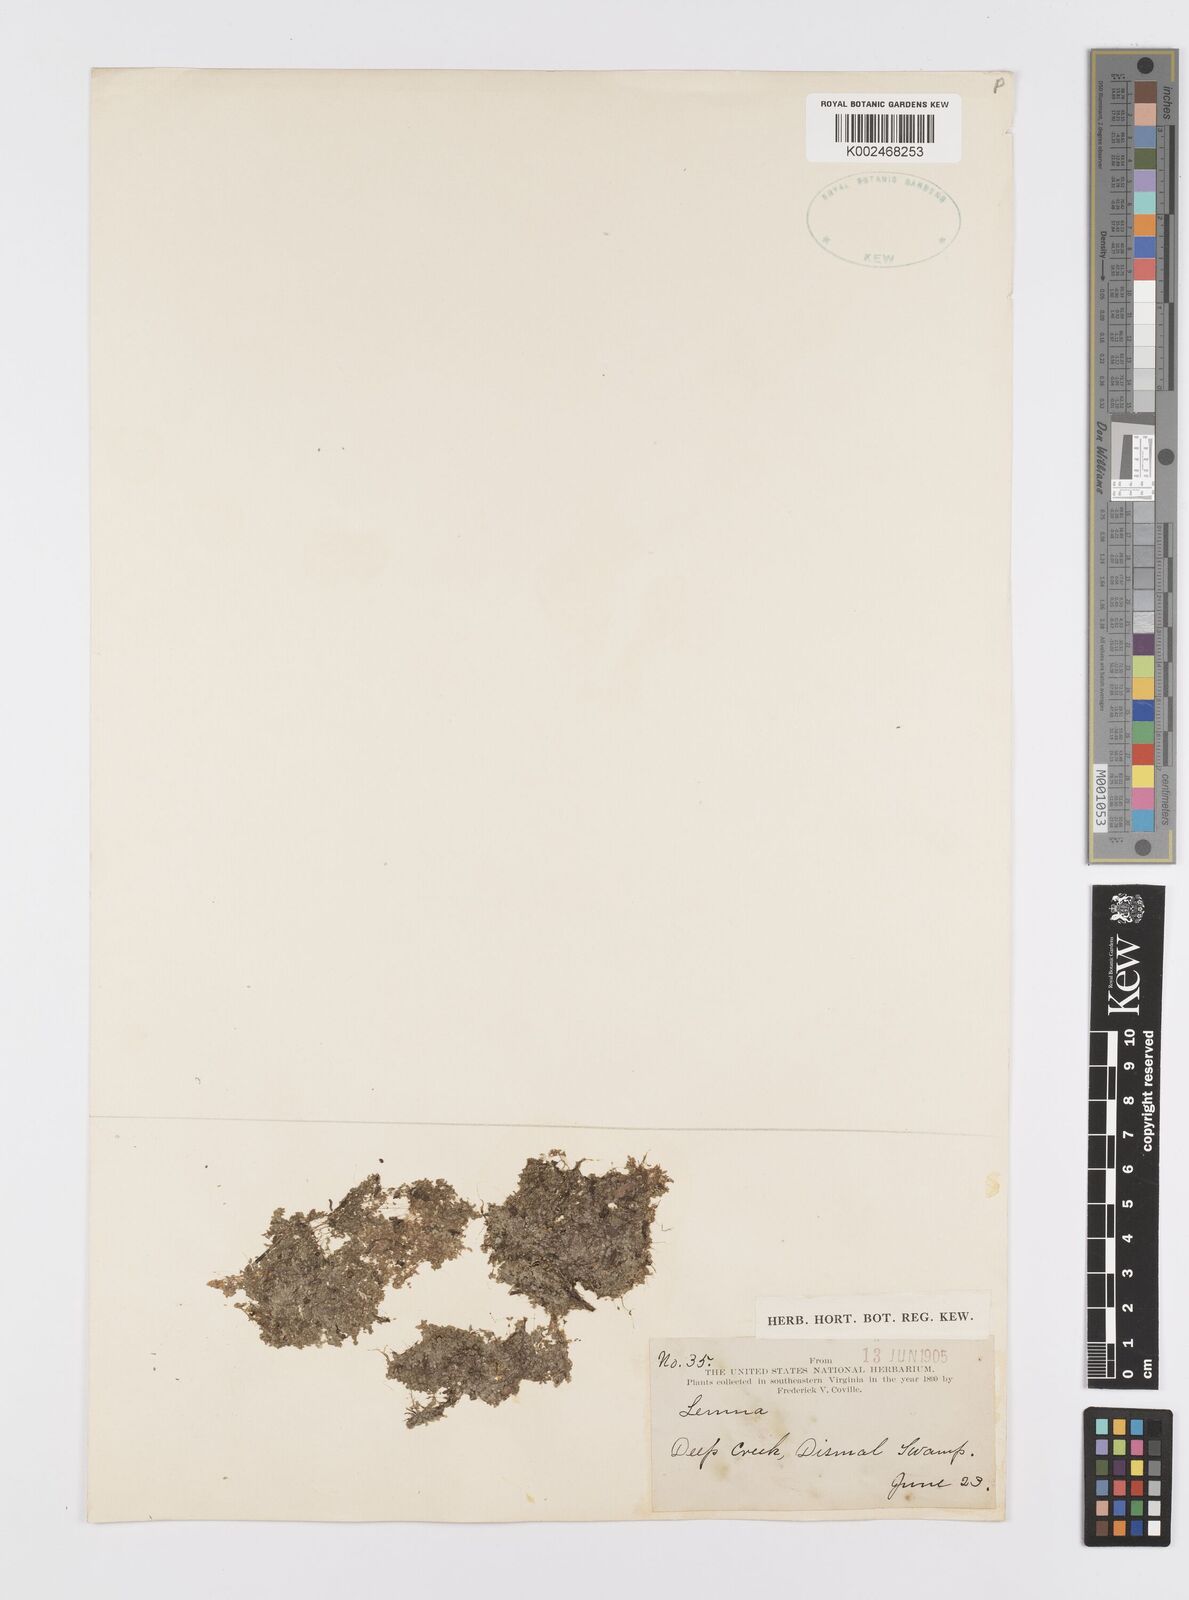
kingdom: Plantae
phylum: Tracheophyta
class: Liliopsida
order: Alismatales
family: Araceae
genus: Lemna
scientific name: Lemna
